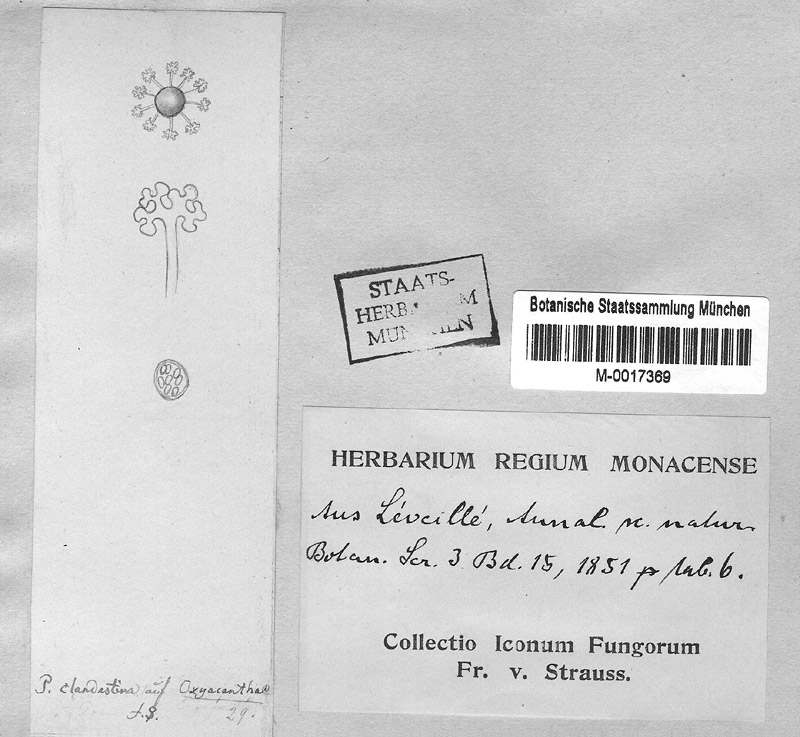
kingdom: Fungi
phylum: Ascomycota
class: Leotiomycetes
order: Helotiales
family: Erysiphaceae
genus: Podosphaera
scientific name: Podosphaera clandestina
